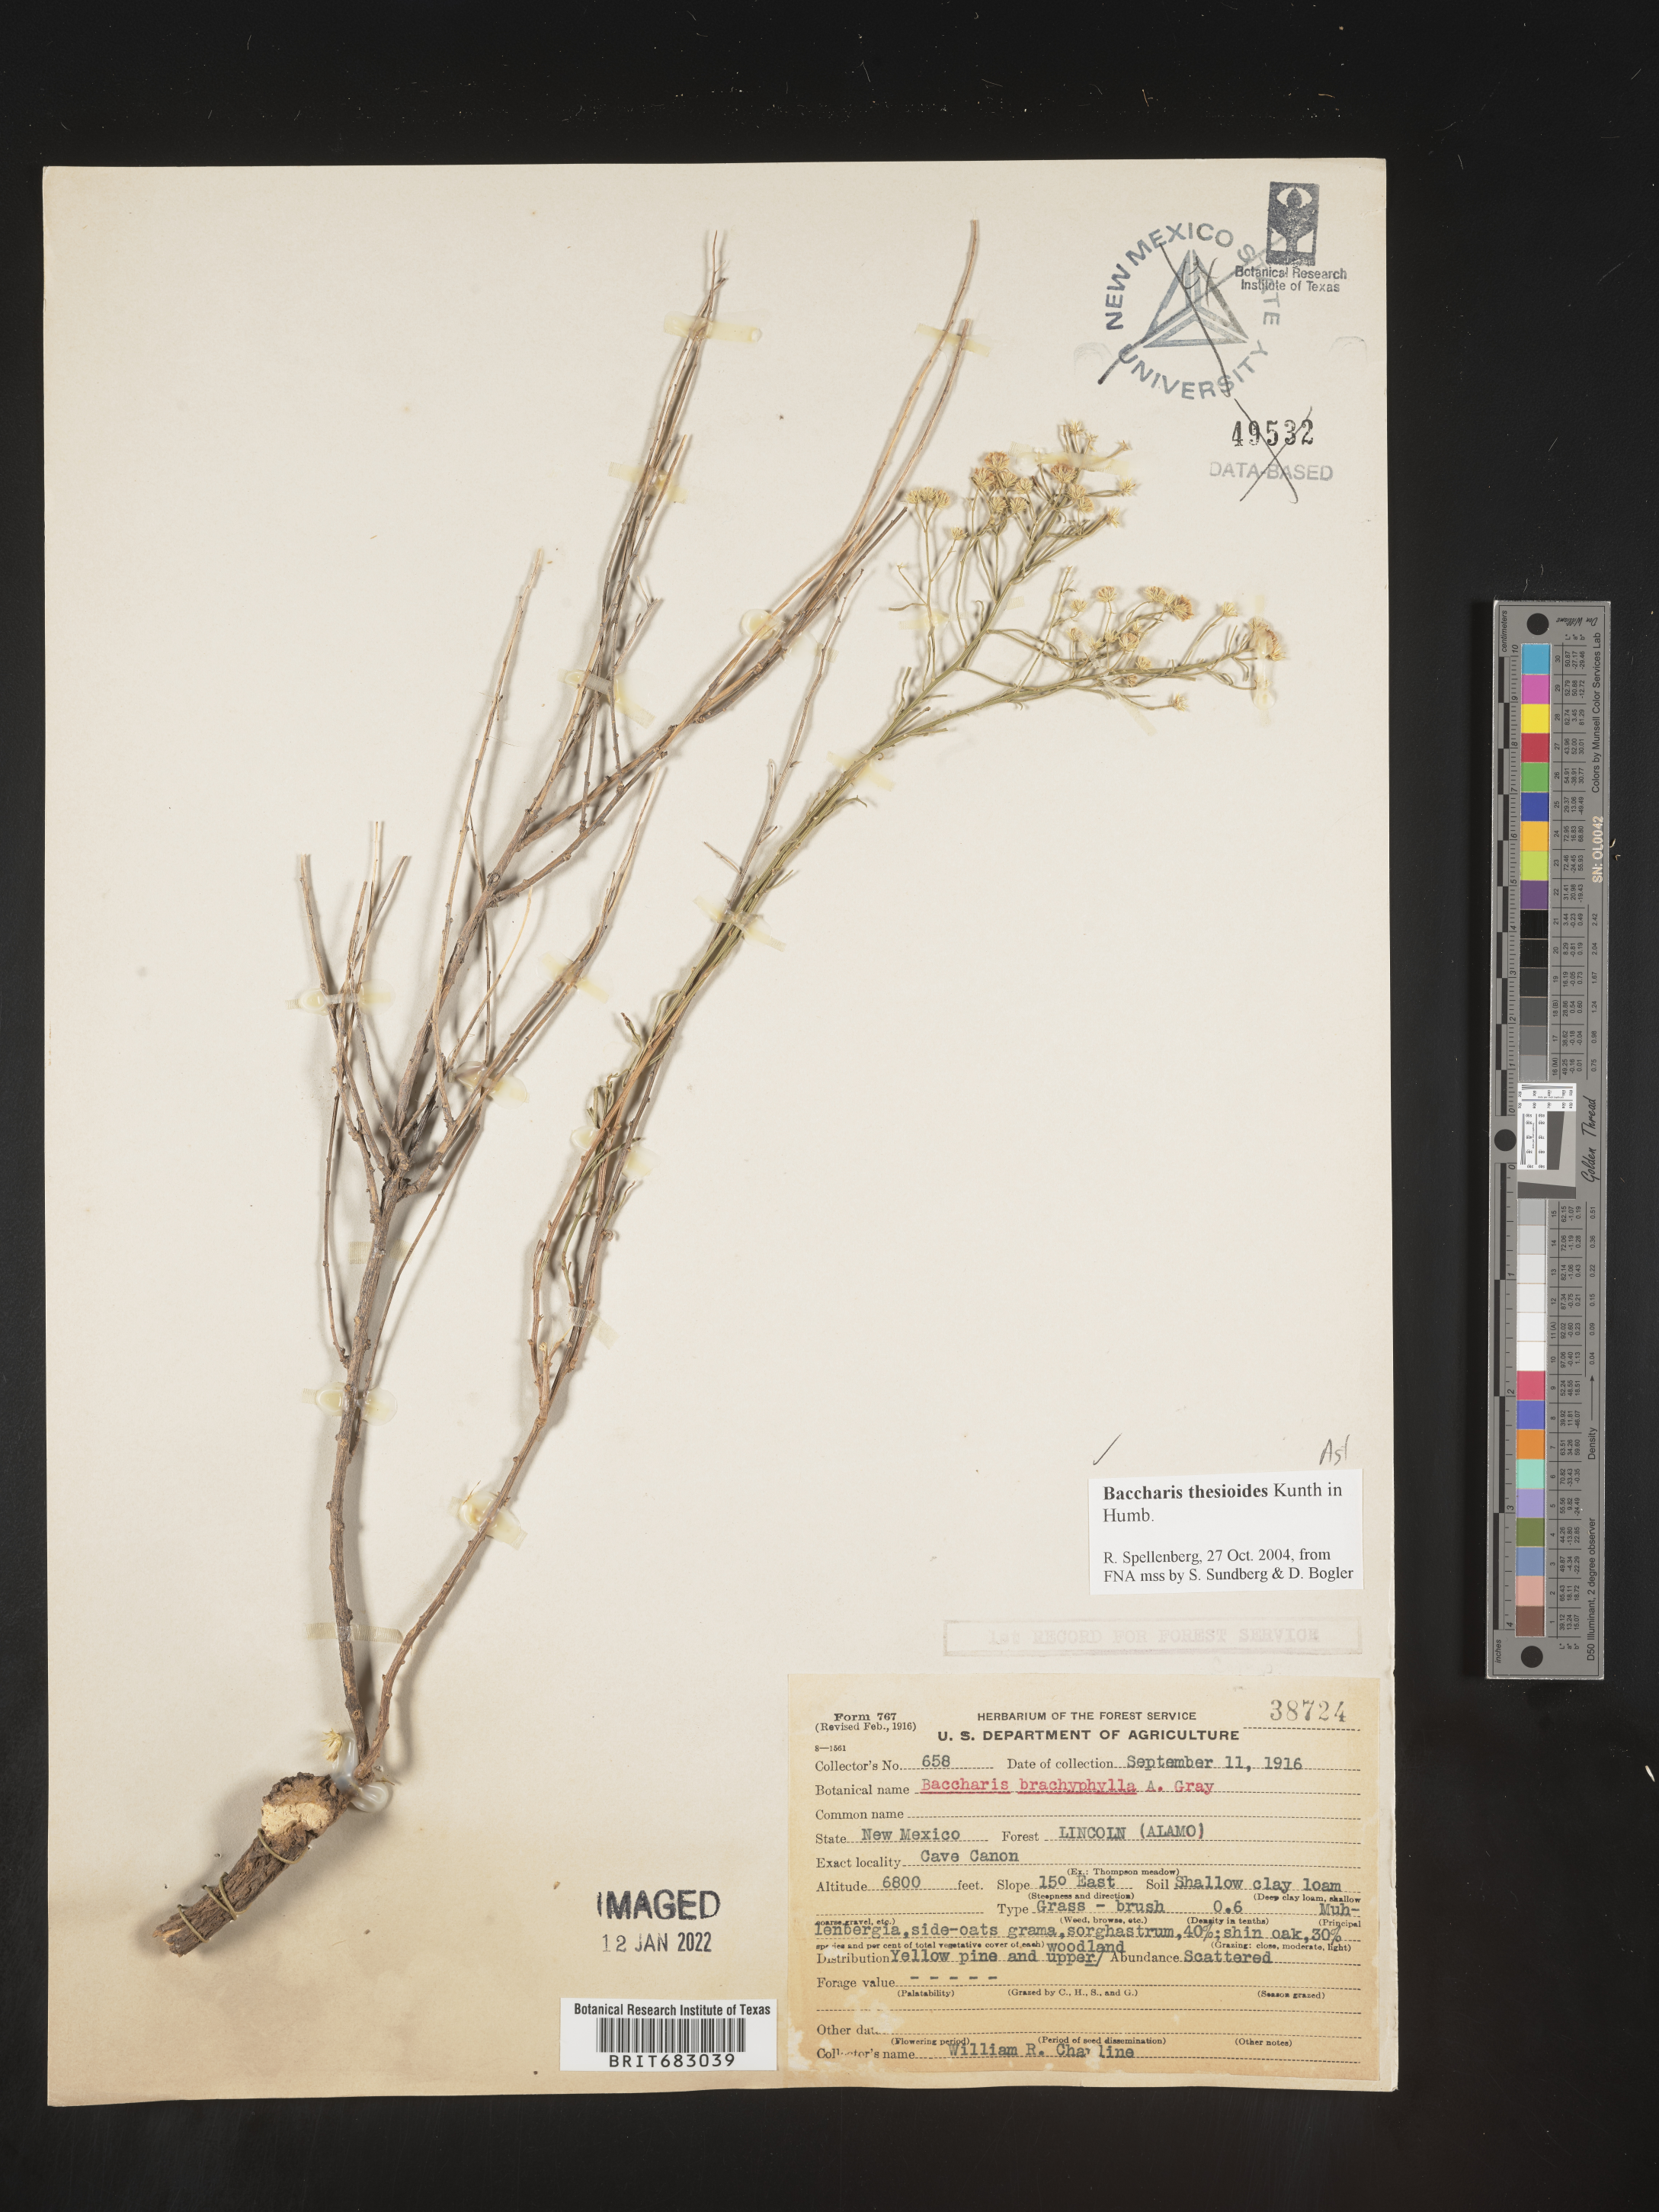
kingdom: Plantae
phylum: Tracheophyta
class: Magnoliopsida
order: Asterales
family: Asteraceae
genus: Baccharis
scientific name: Baccharis thesioides
